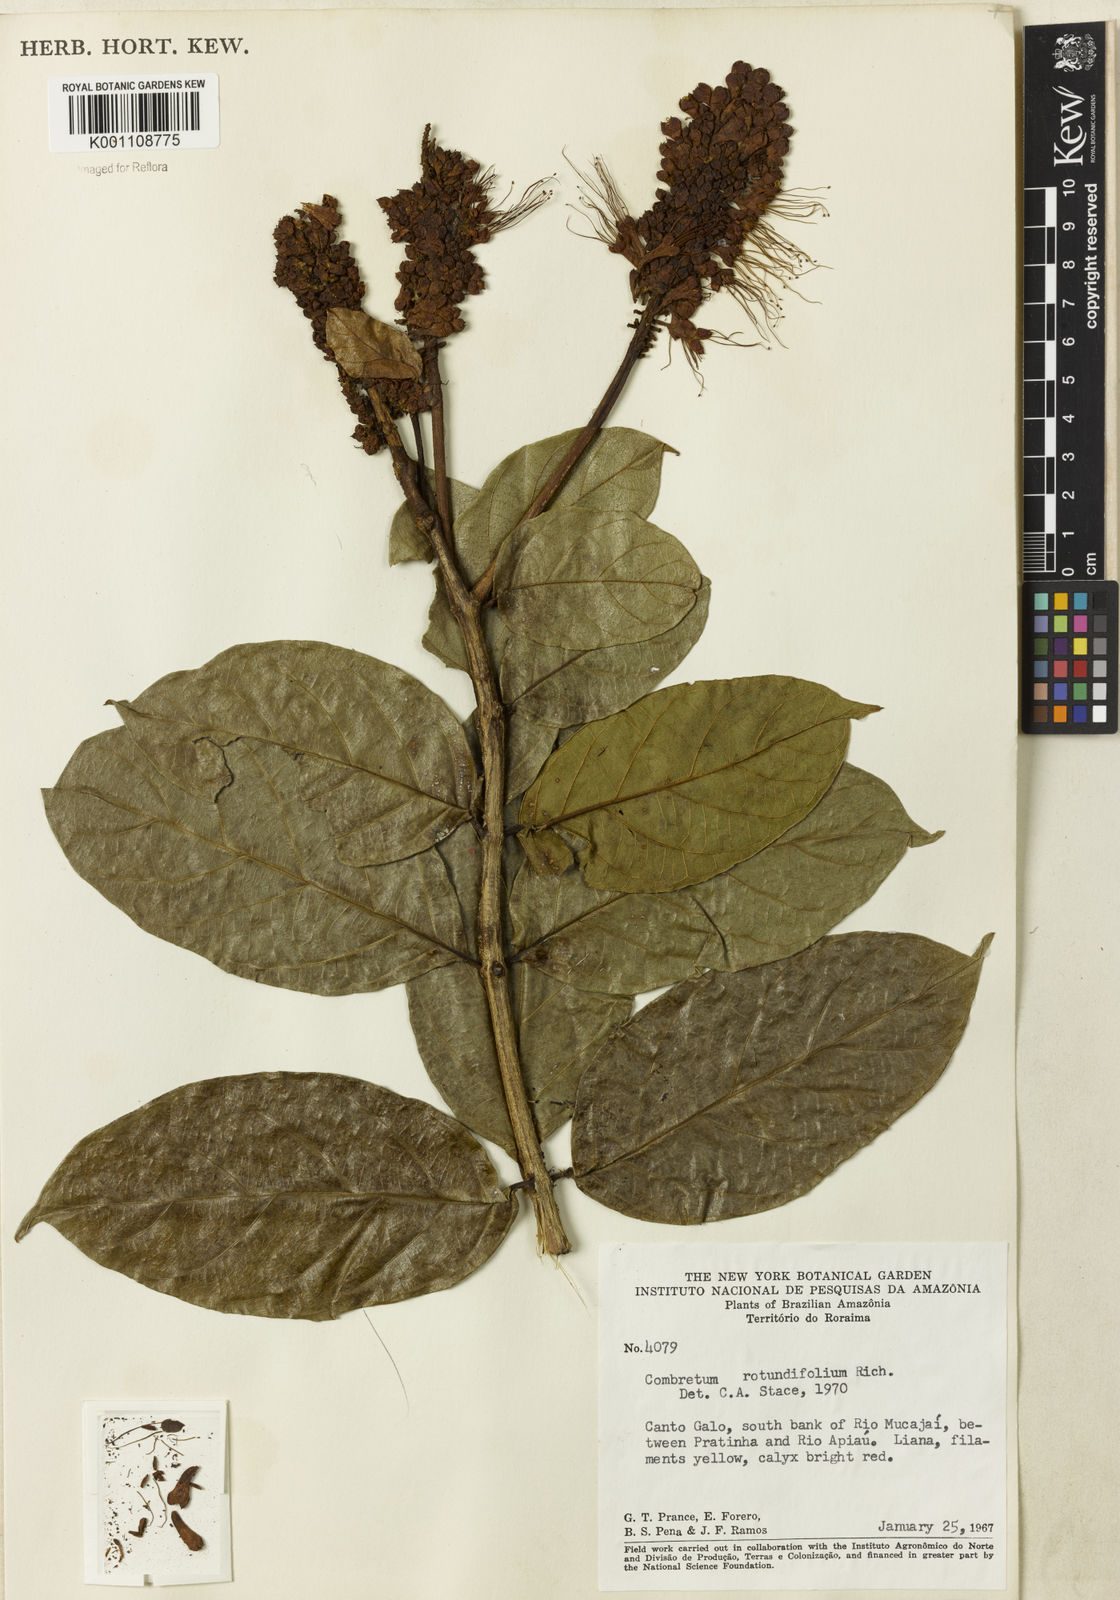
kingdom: Plantae
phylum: Tracheophyta
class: Magnoliopsida
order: Myrtales
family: Combretaceae
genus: Combretum
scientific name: Combretum rotundifolium
